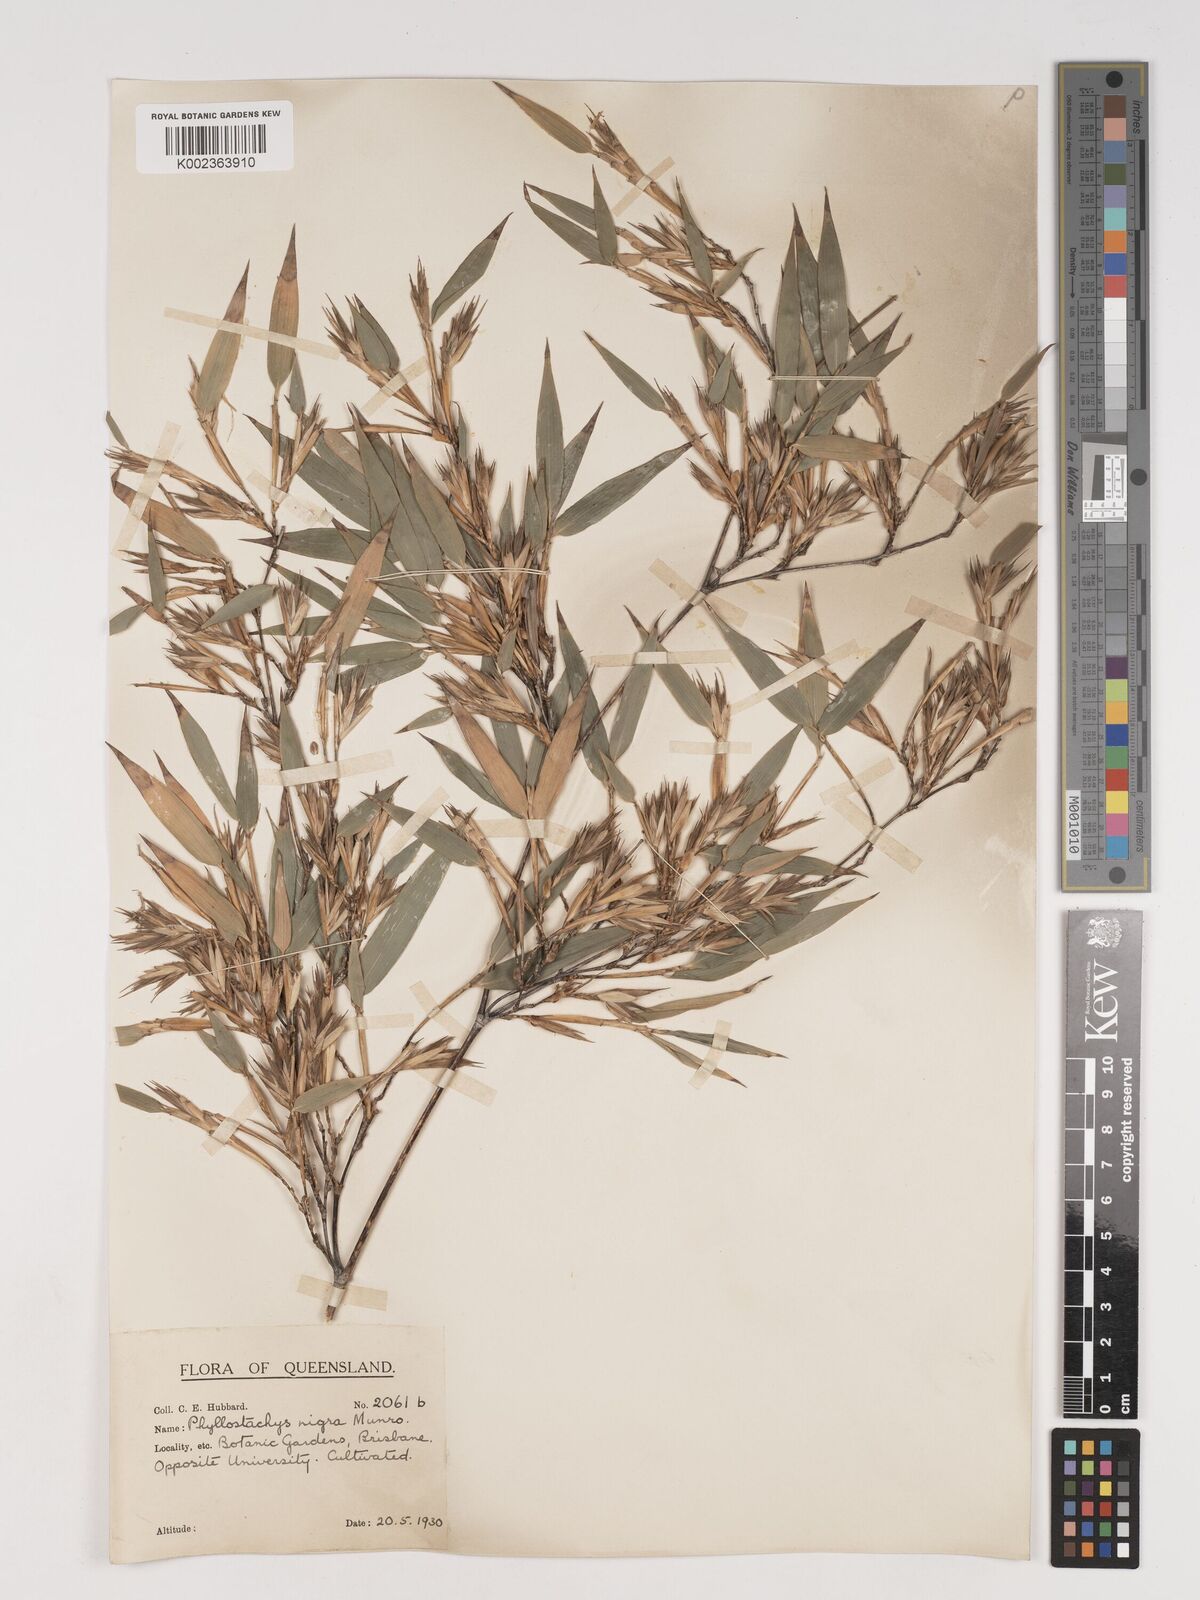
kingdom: Plantae
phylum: Tracheophyta
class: Liliopsida
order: Poales
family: Poaceae
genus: Phyllostachys
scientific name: Phyllostachys nigra
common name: Black bamboo
